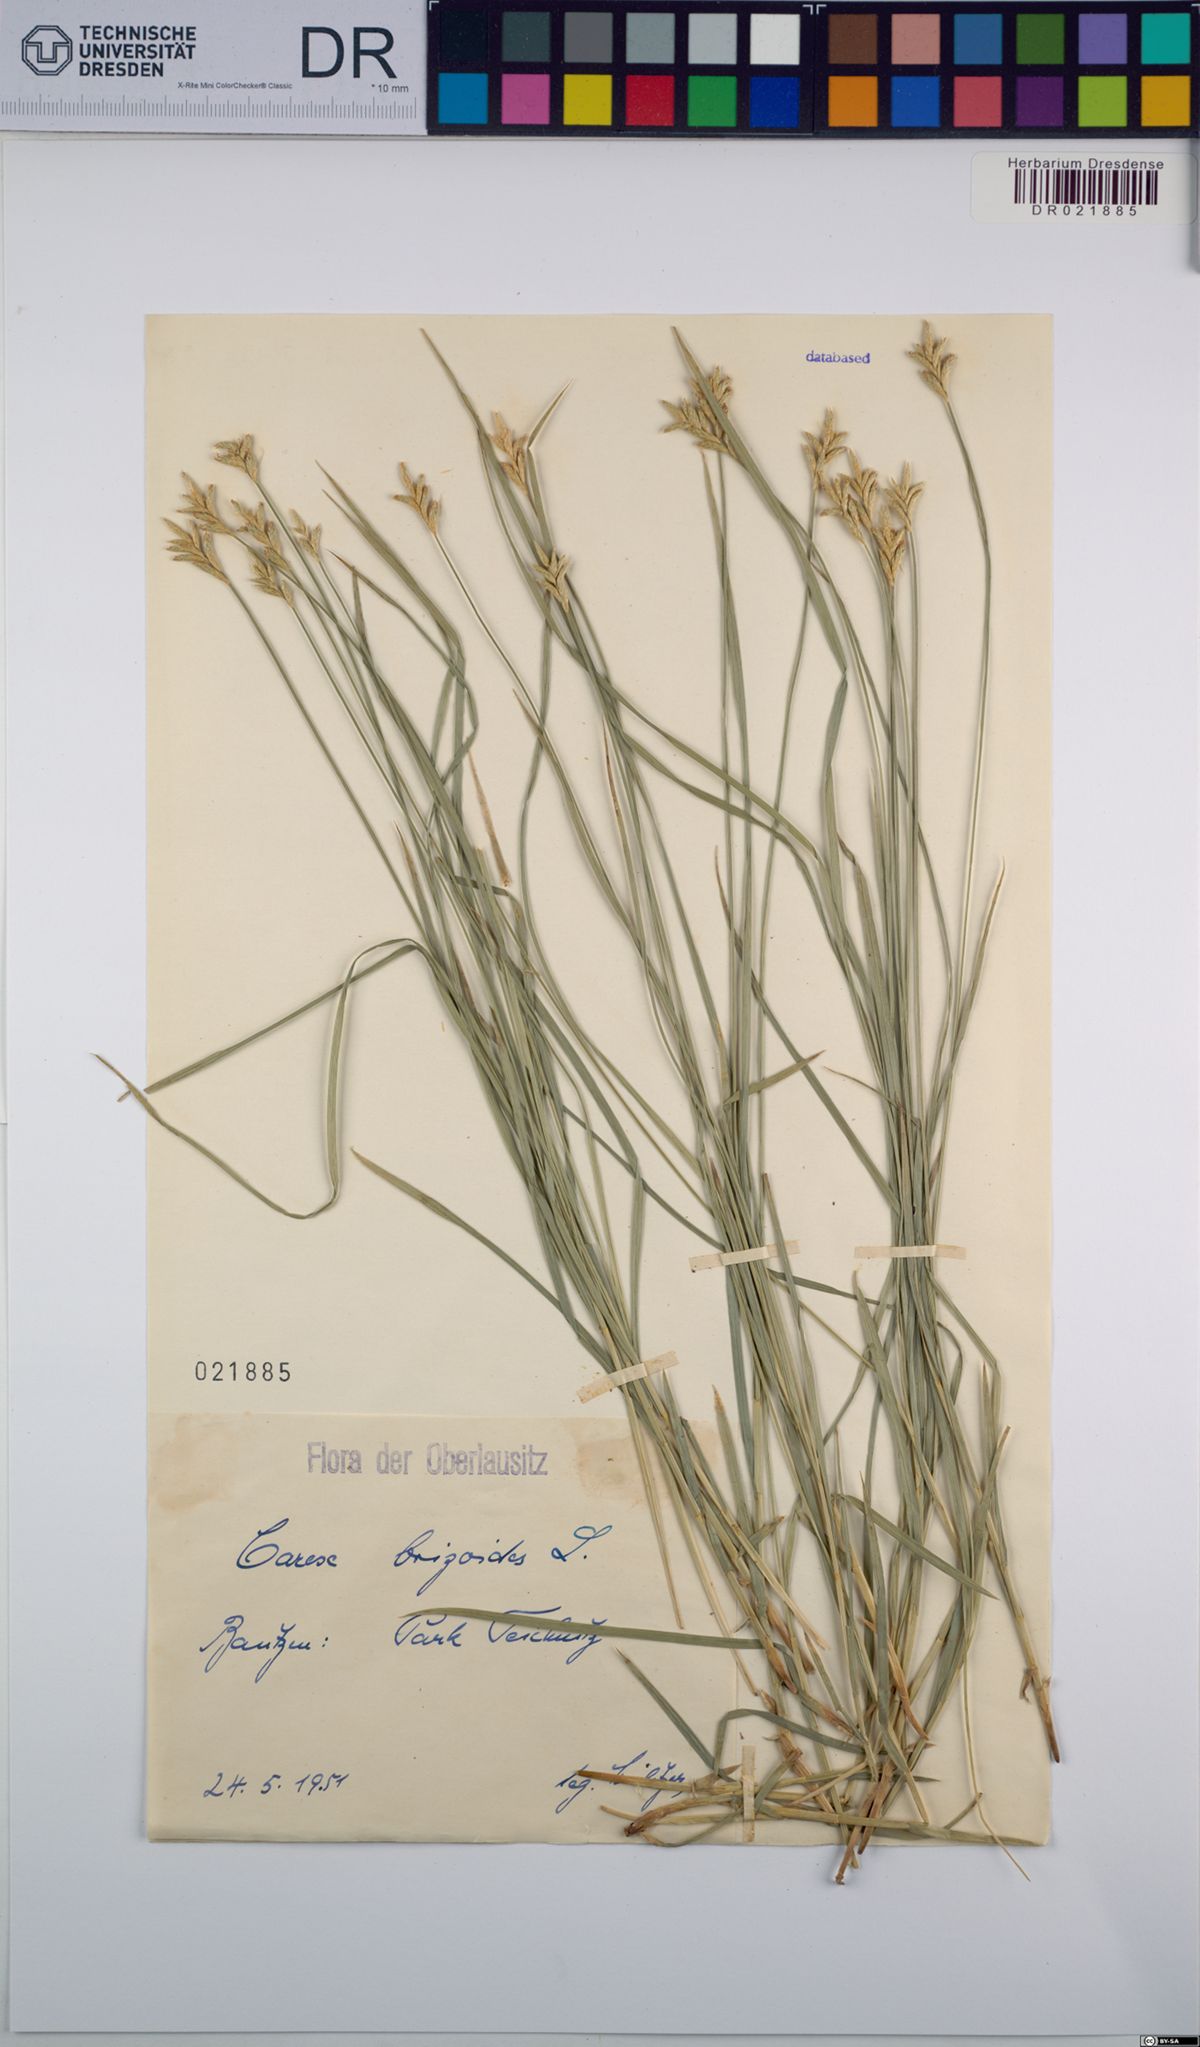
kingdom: Plantae
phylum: Tracheophyta
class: Liliopsida
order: Poales
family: Cyperaceae
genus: Carex
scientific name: Carex brizoides
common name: Quaking-grass sedge
